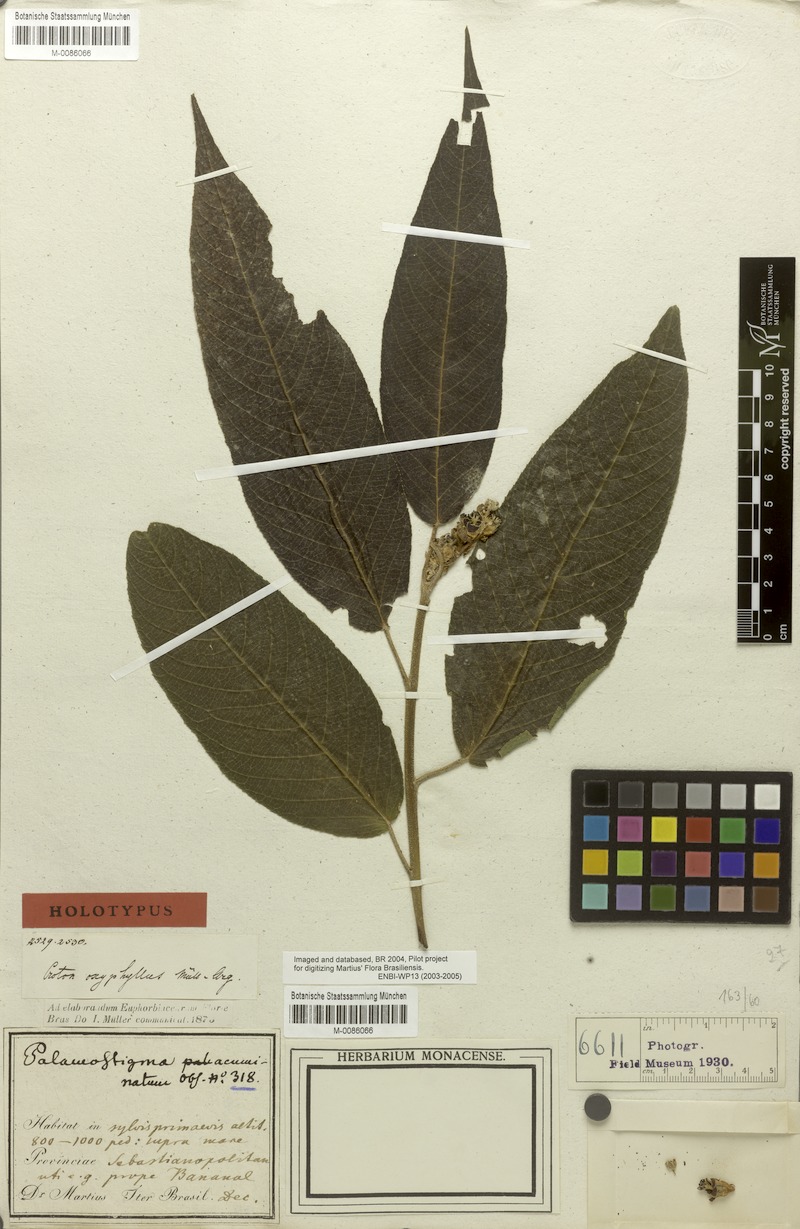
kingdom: Plantae
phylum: Tracheophyta
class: Magnoliopsida
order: Malpighiales
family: Euphorbiaceae
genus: Croton
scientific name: Croton organensis
